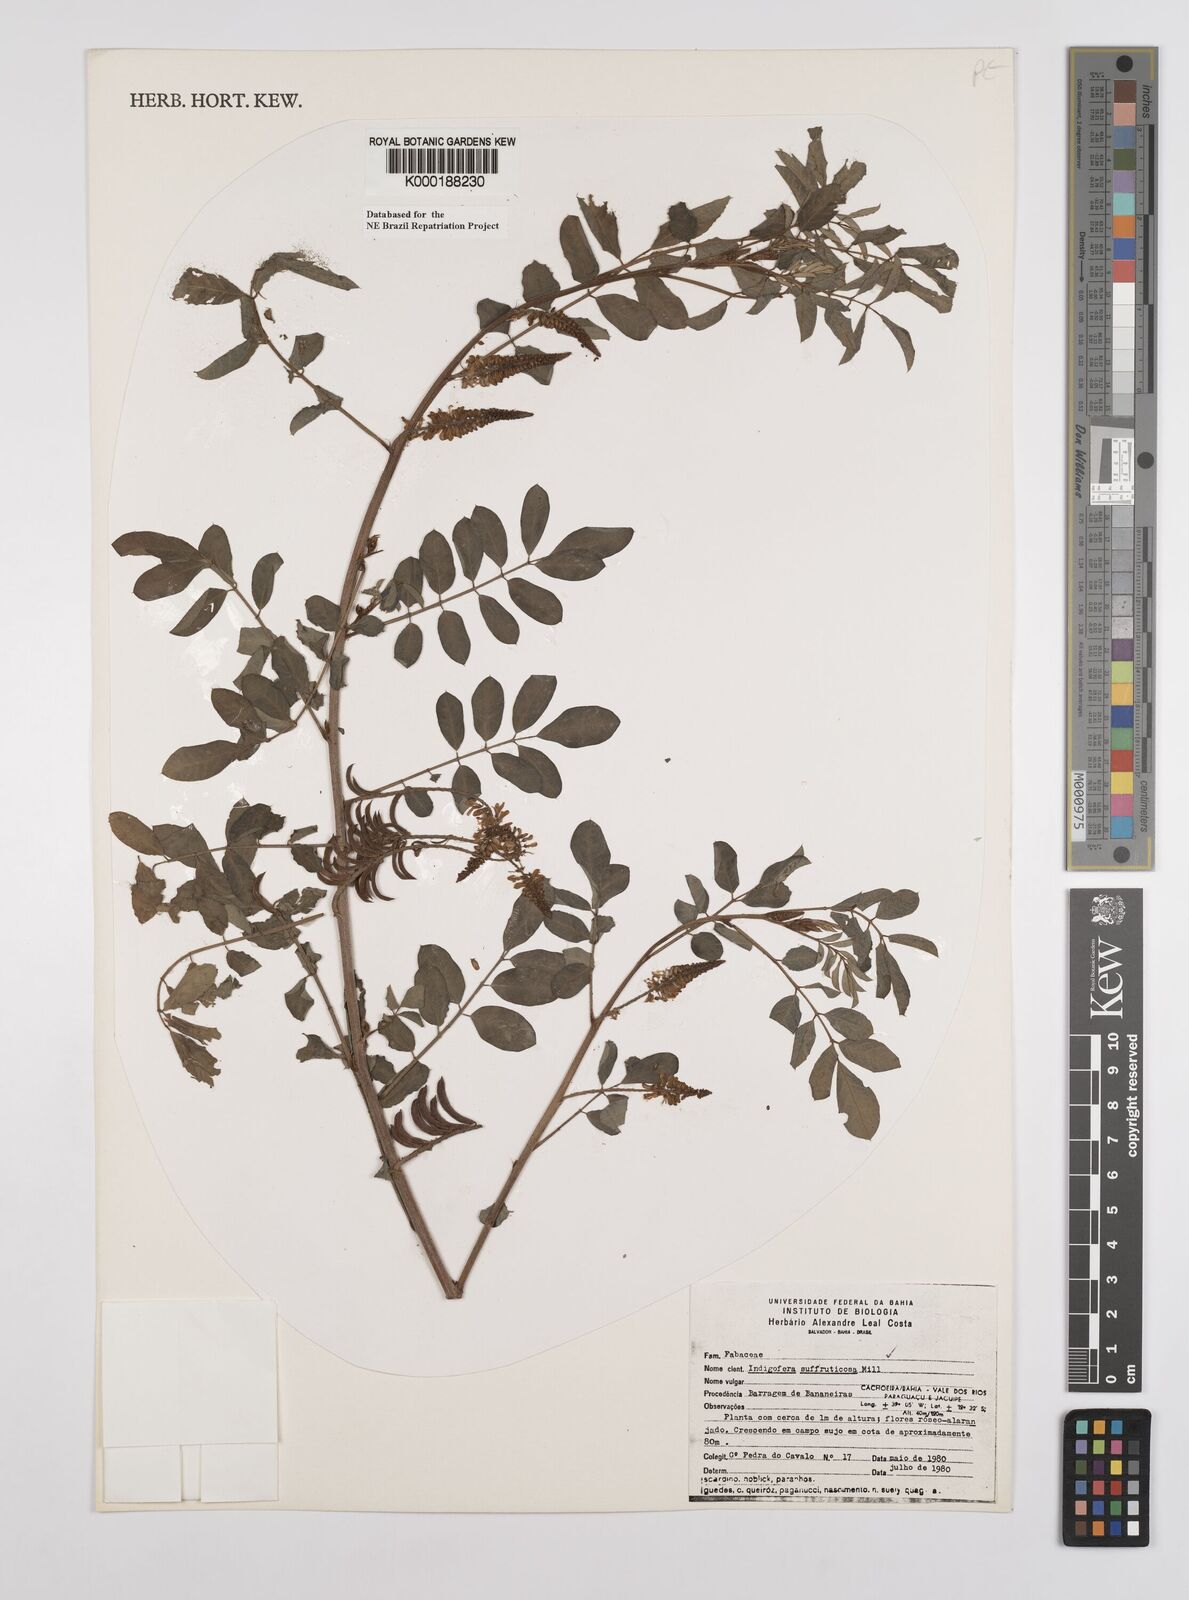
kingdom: Plantae
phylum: Tracheophyta
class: Magnoliopsida
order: Fabales
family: Fabaceae
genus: Indigofera
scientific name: Indigofera suffruticosa
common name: Anil de pasto
